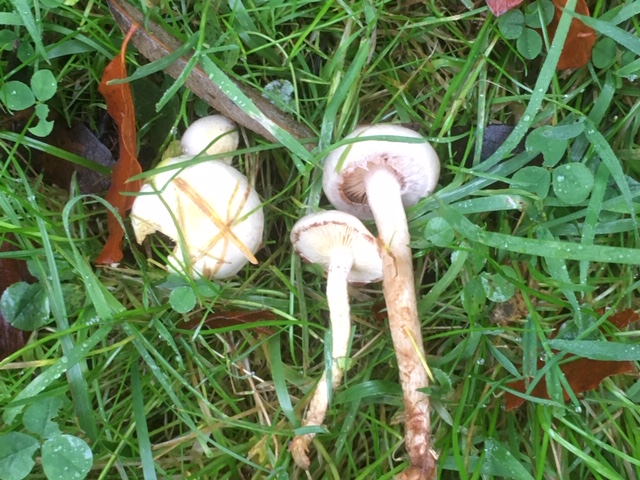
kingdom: Fungi
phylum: Basidiomycota
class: Agaricomycetes
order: Agaricales
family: Strophariaceae
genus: Pholiota
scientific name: Pholiota gummosa
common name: grøngul skælhat
